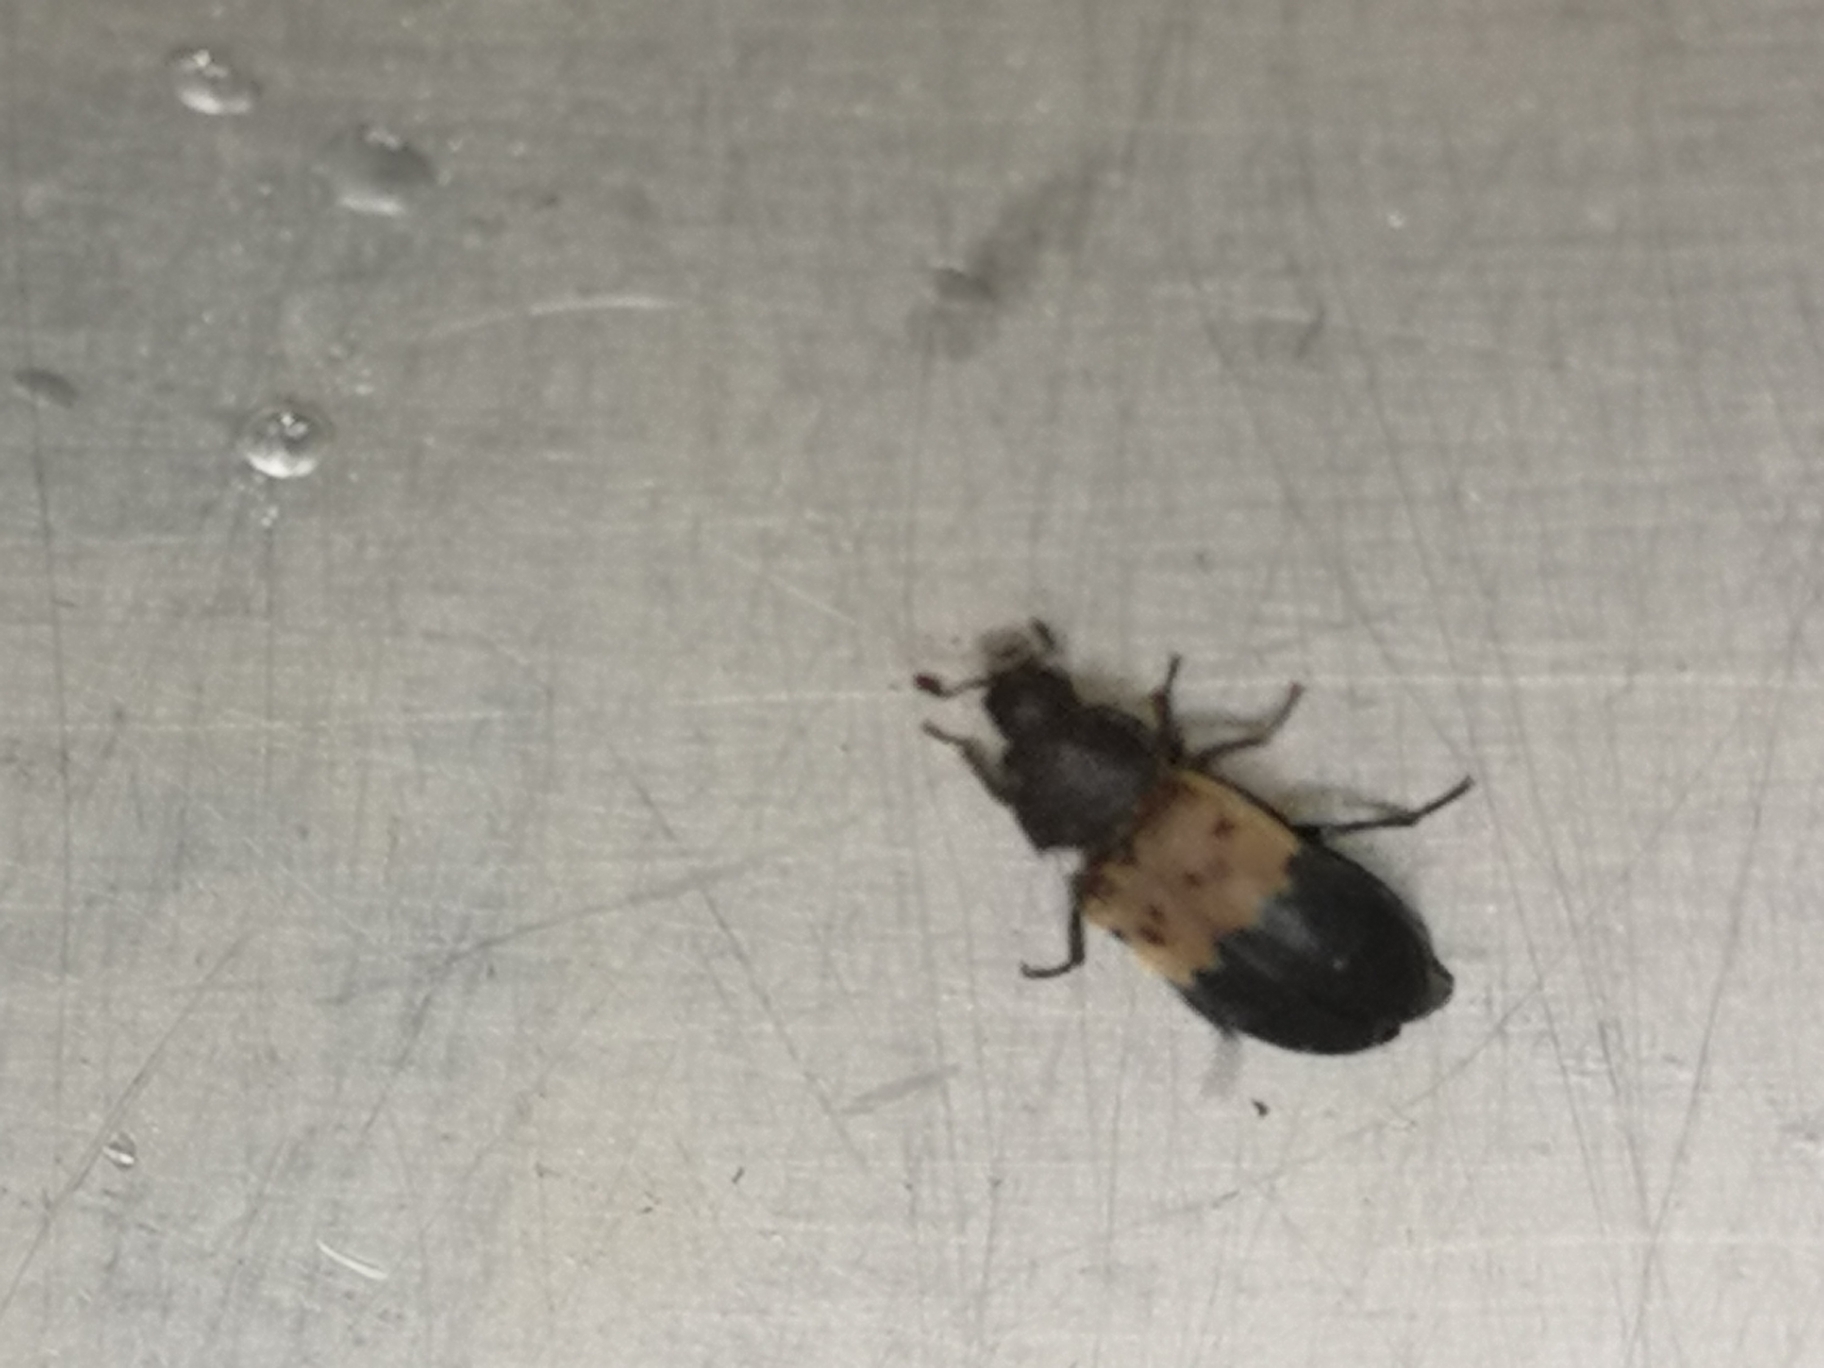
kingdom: Animalia
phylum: Arthropoda
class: Insecta
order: Coleoptera
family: Dermestidae
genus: Dermestes
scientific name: Dermestes lardarius
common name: Flæskeklanner
